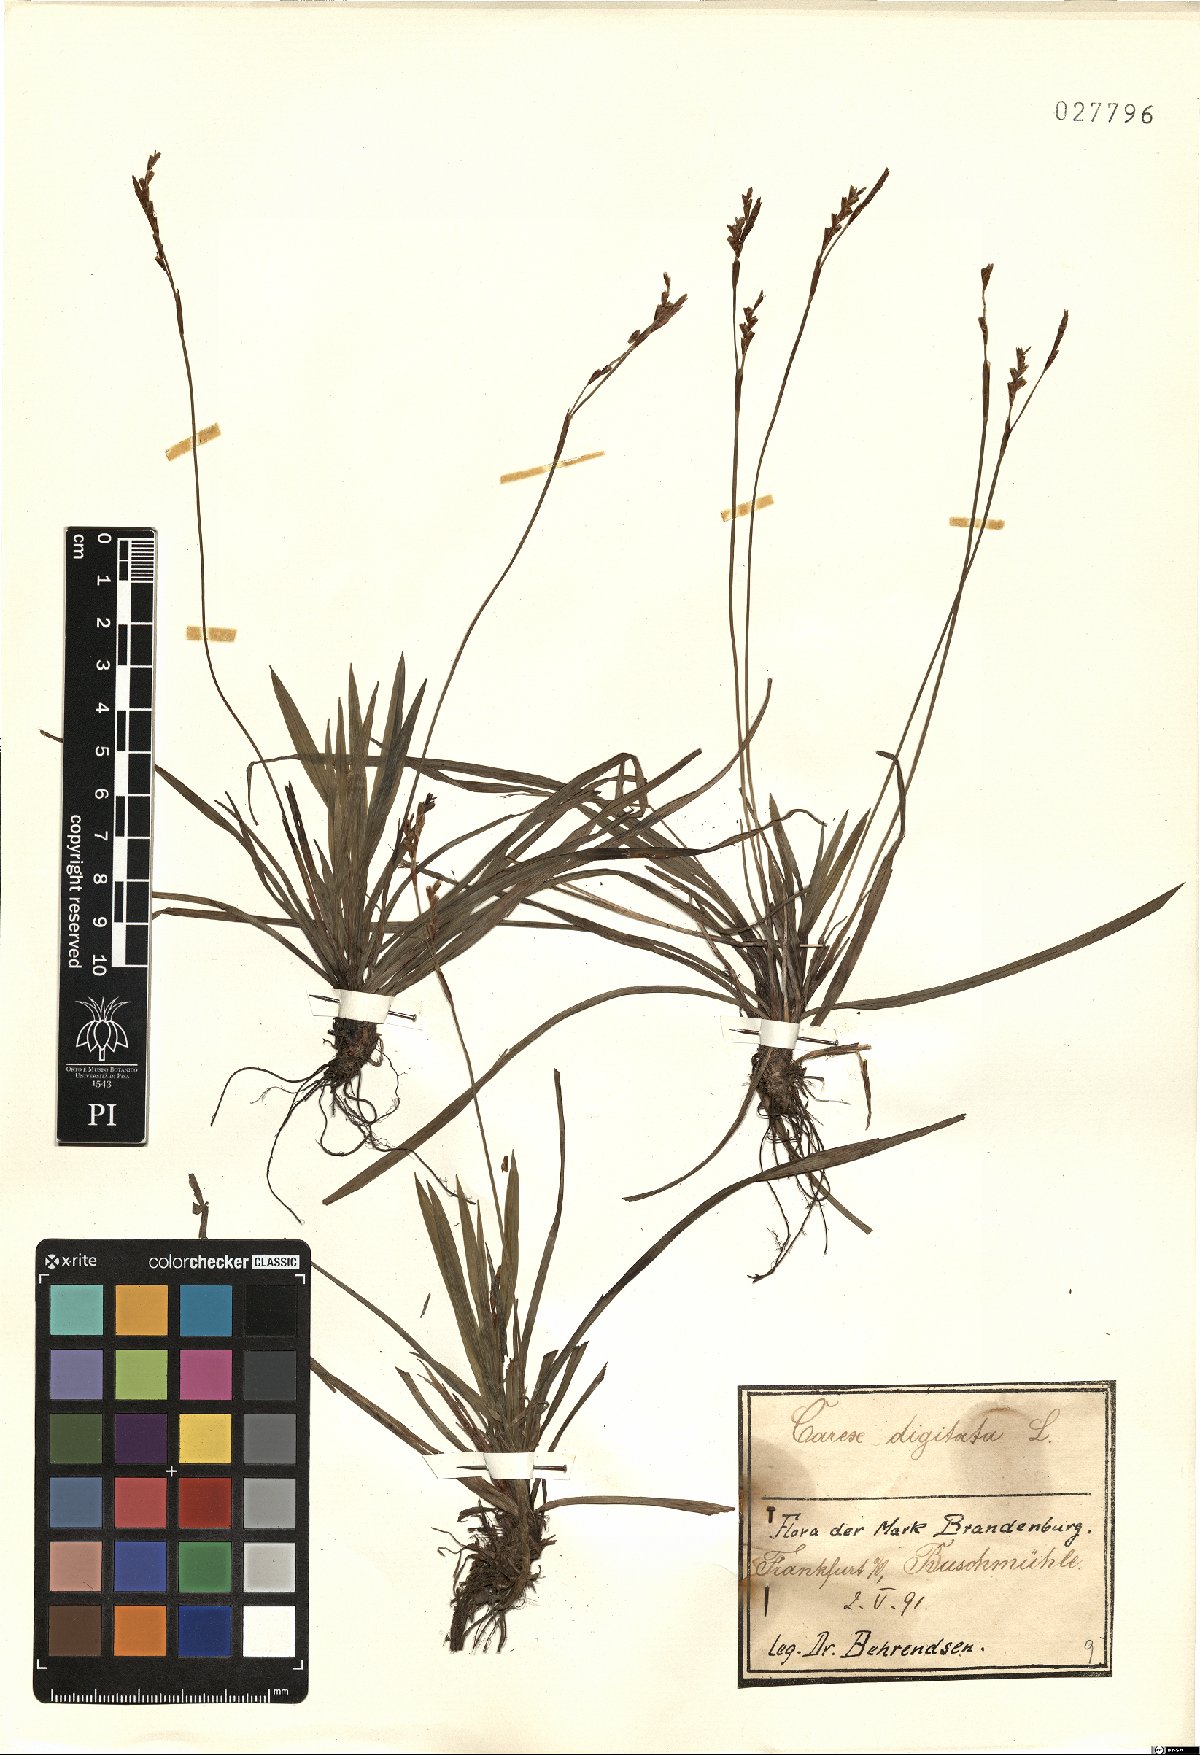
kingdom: Plantae
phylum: Tracheophyta
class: Liliopsida
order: Poales
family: Cyperaceae
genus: Carex
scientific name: Carex digitata
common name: Fingered sedge
